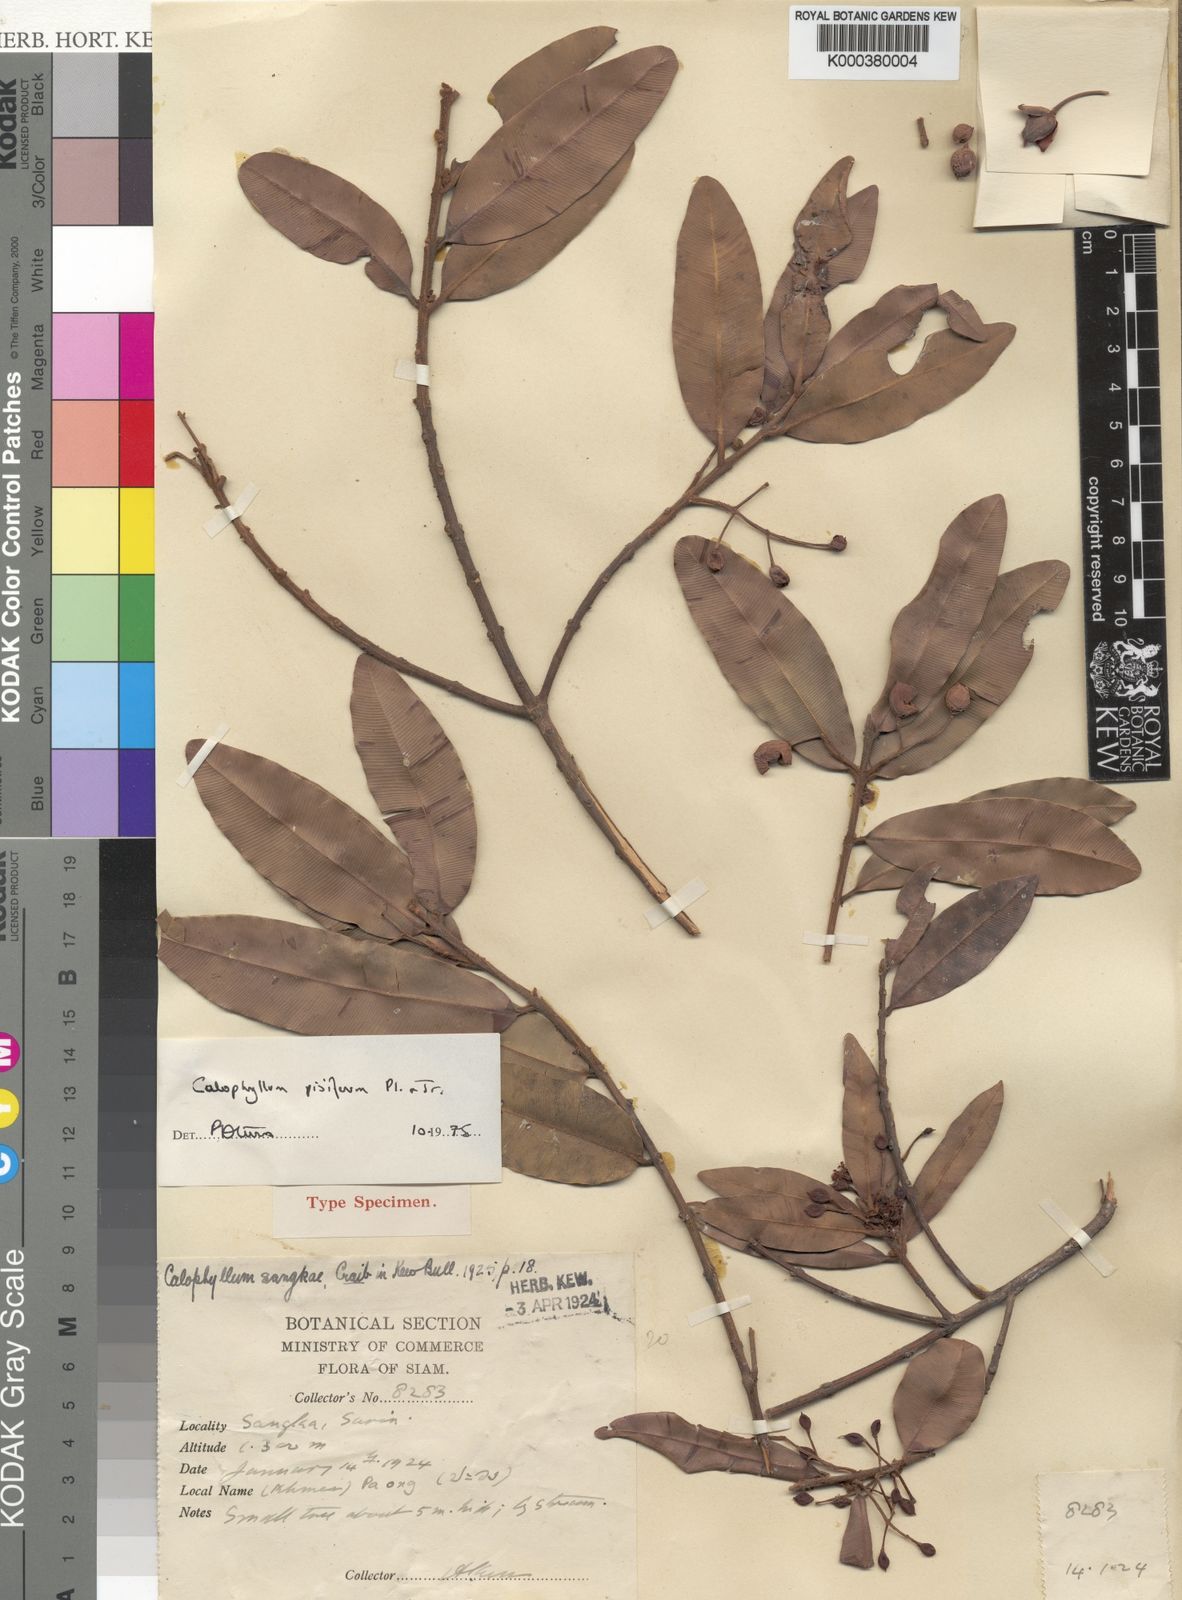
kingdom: Plantae
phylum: Tracheophyta
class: Magnoliopsida
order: Malpighiales
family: Calophyllaceae
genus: Calophyllum
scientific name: Calophyllum pisiferum
